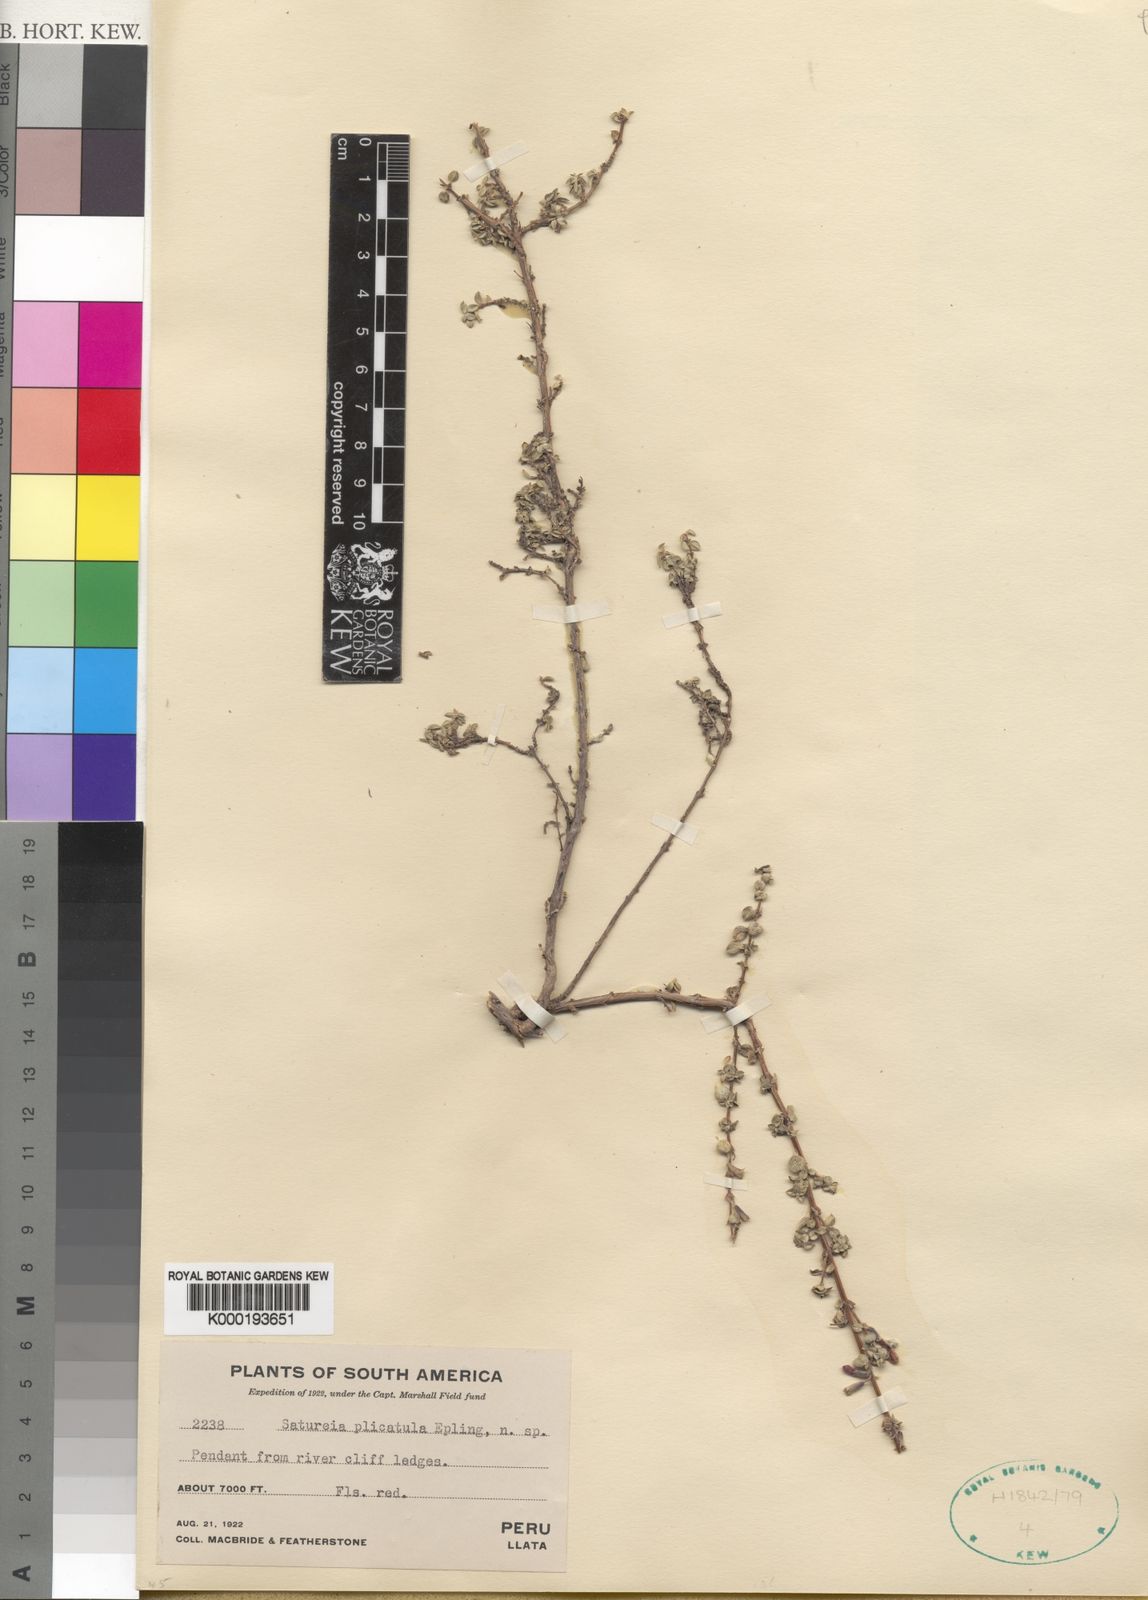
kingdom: Plantae
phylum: Tracheophyta
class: Magnoliopsida
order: Lamiales
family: Lamiaceae
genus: Clinopodium
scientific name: Clinopodium plicatulum
